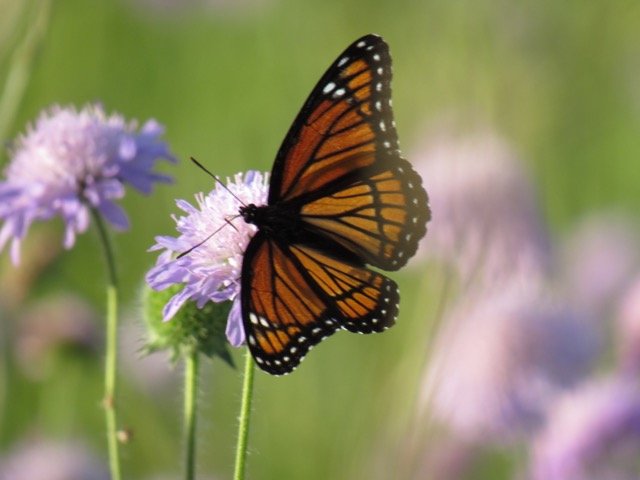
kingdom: Animalia
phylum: Arthropoda
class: Insecta
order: Lepidoptera
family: Nymphalidae
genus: Limenitis
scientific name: Limenitis archippus
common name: Viceroy
